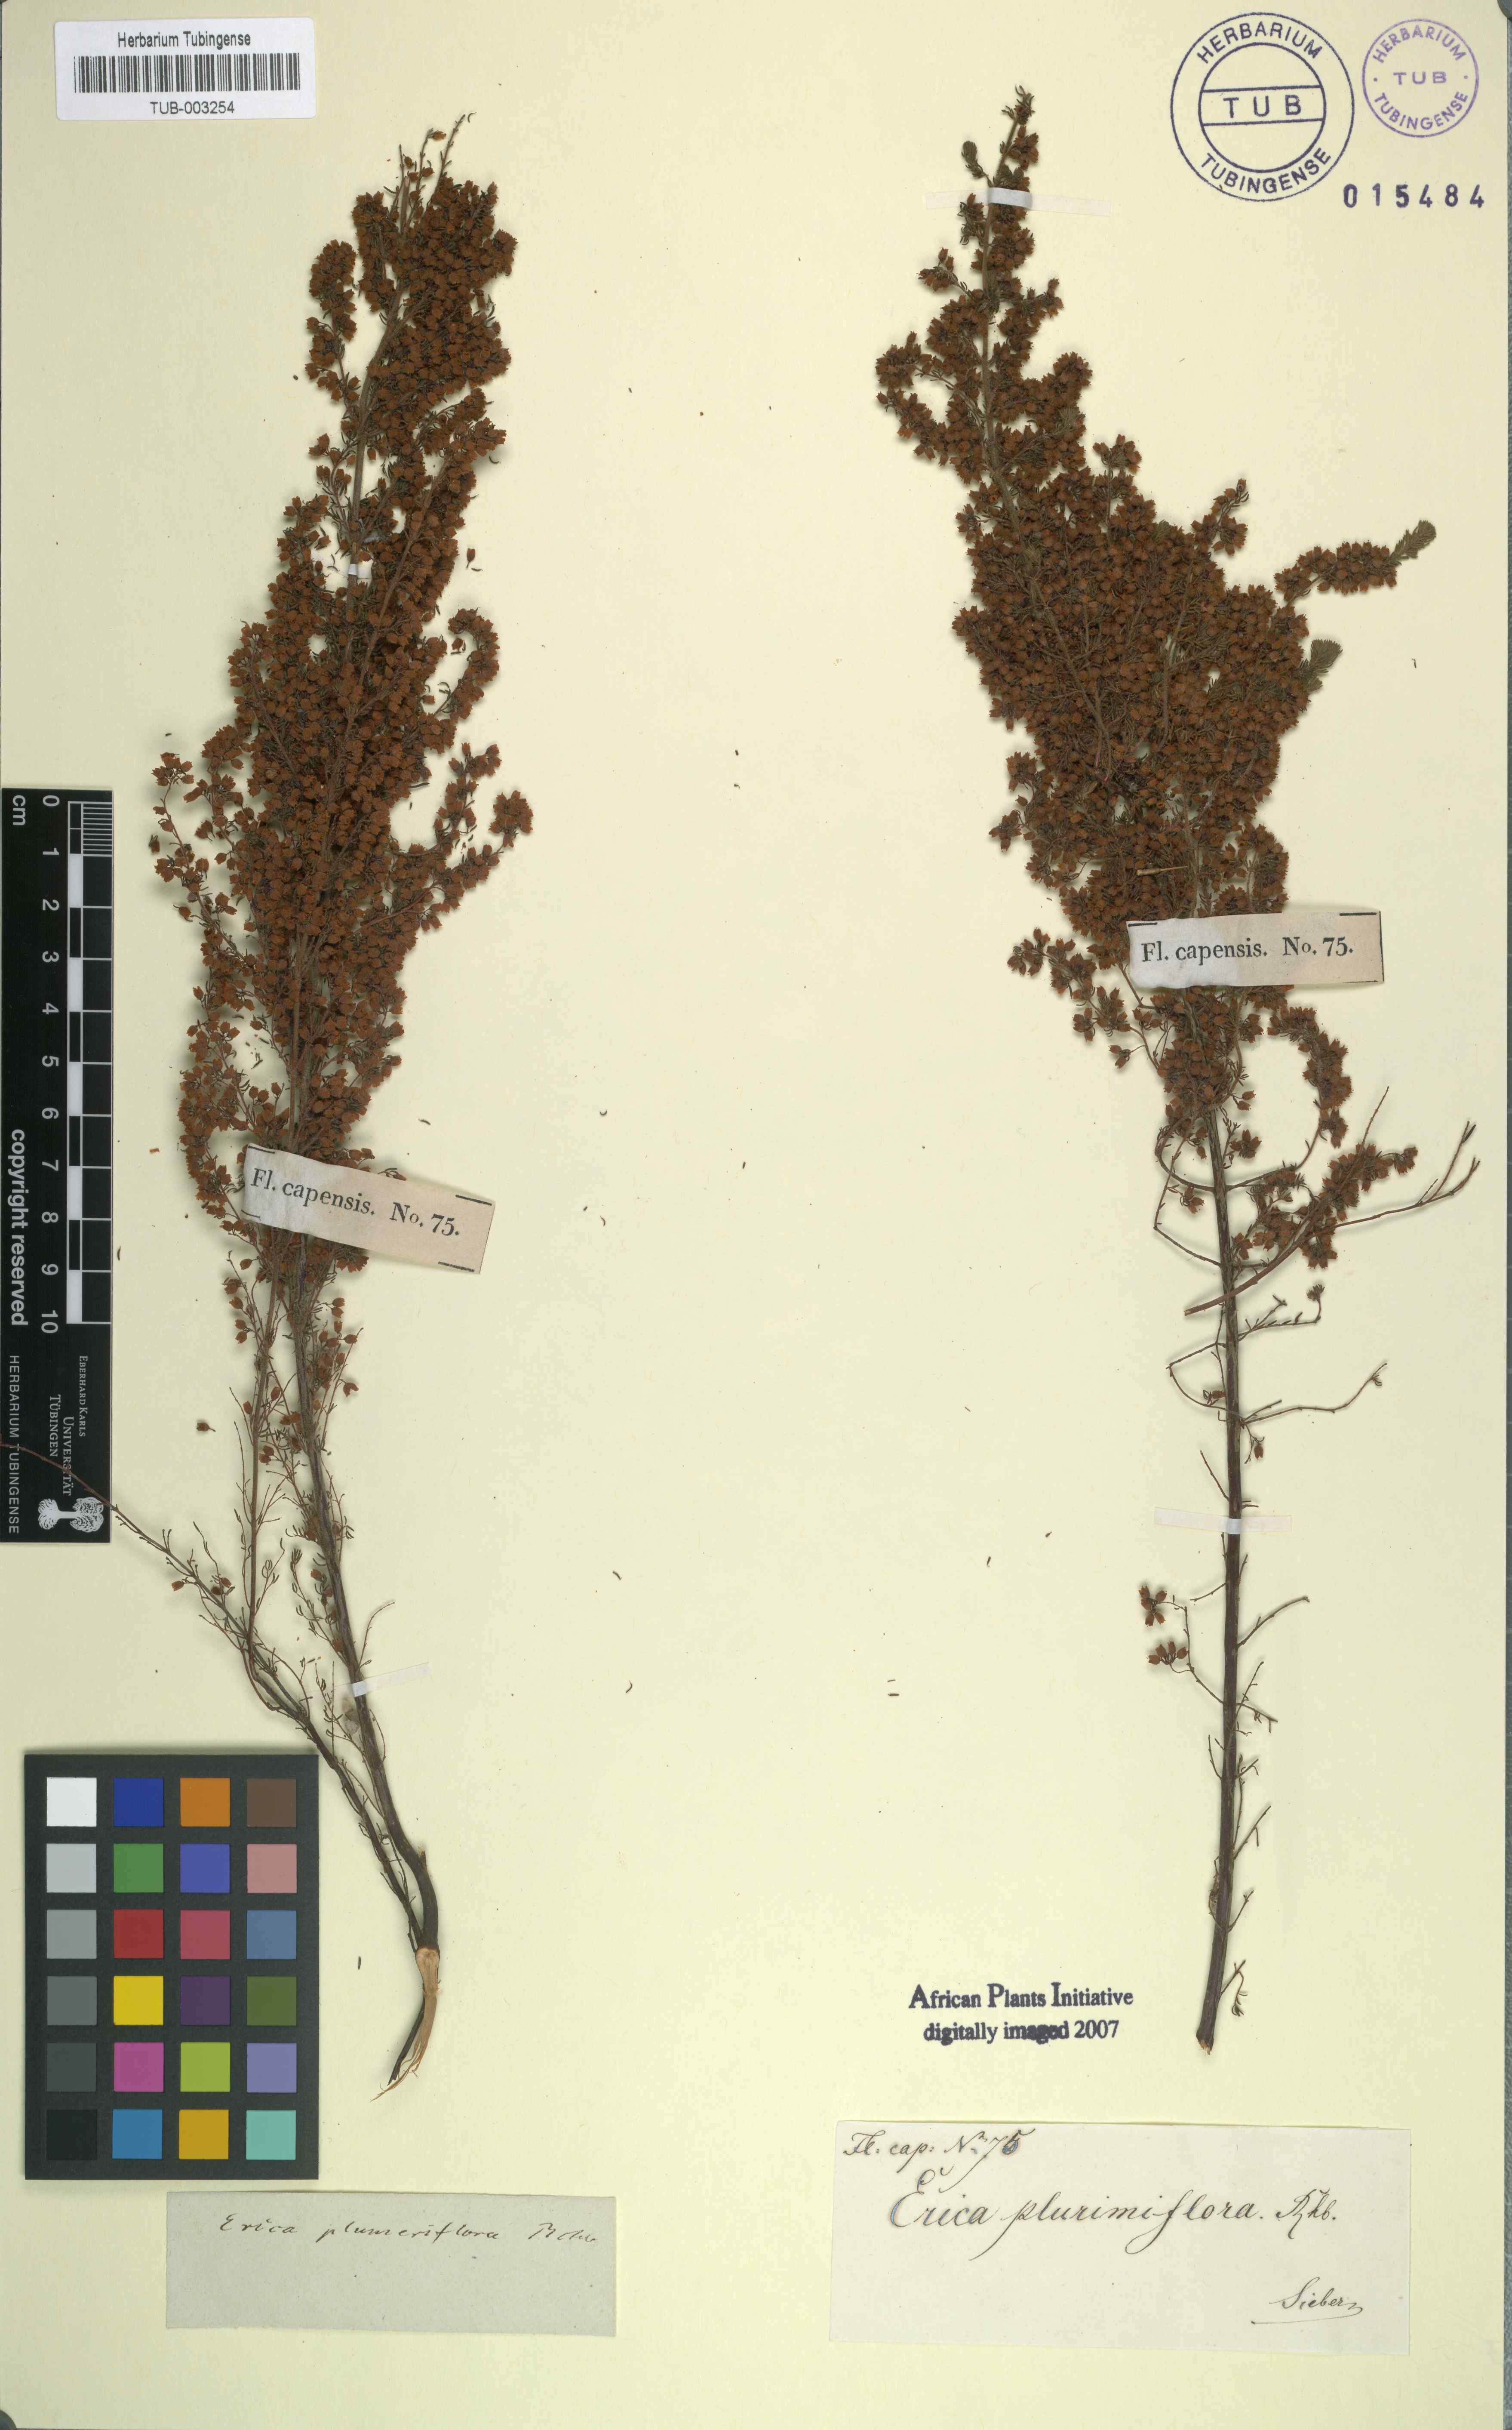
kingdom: Plantae
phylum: Tracheophyta
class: Magnoliopsida
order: Ericales
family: Ericaceae
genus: Erica
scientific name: Erica
